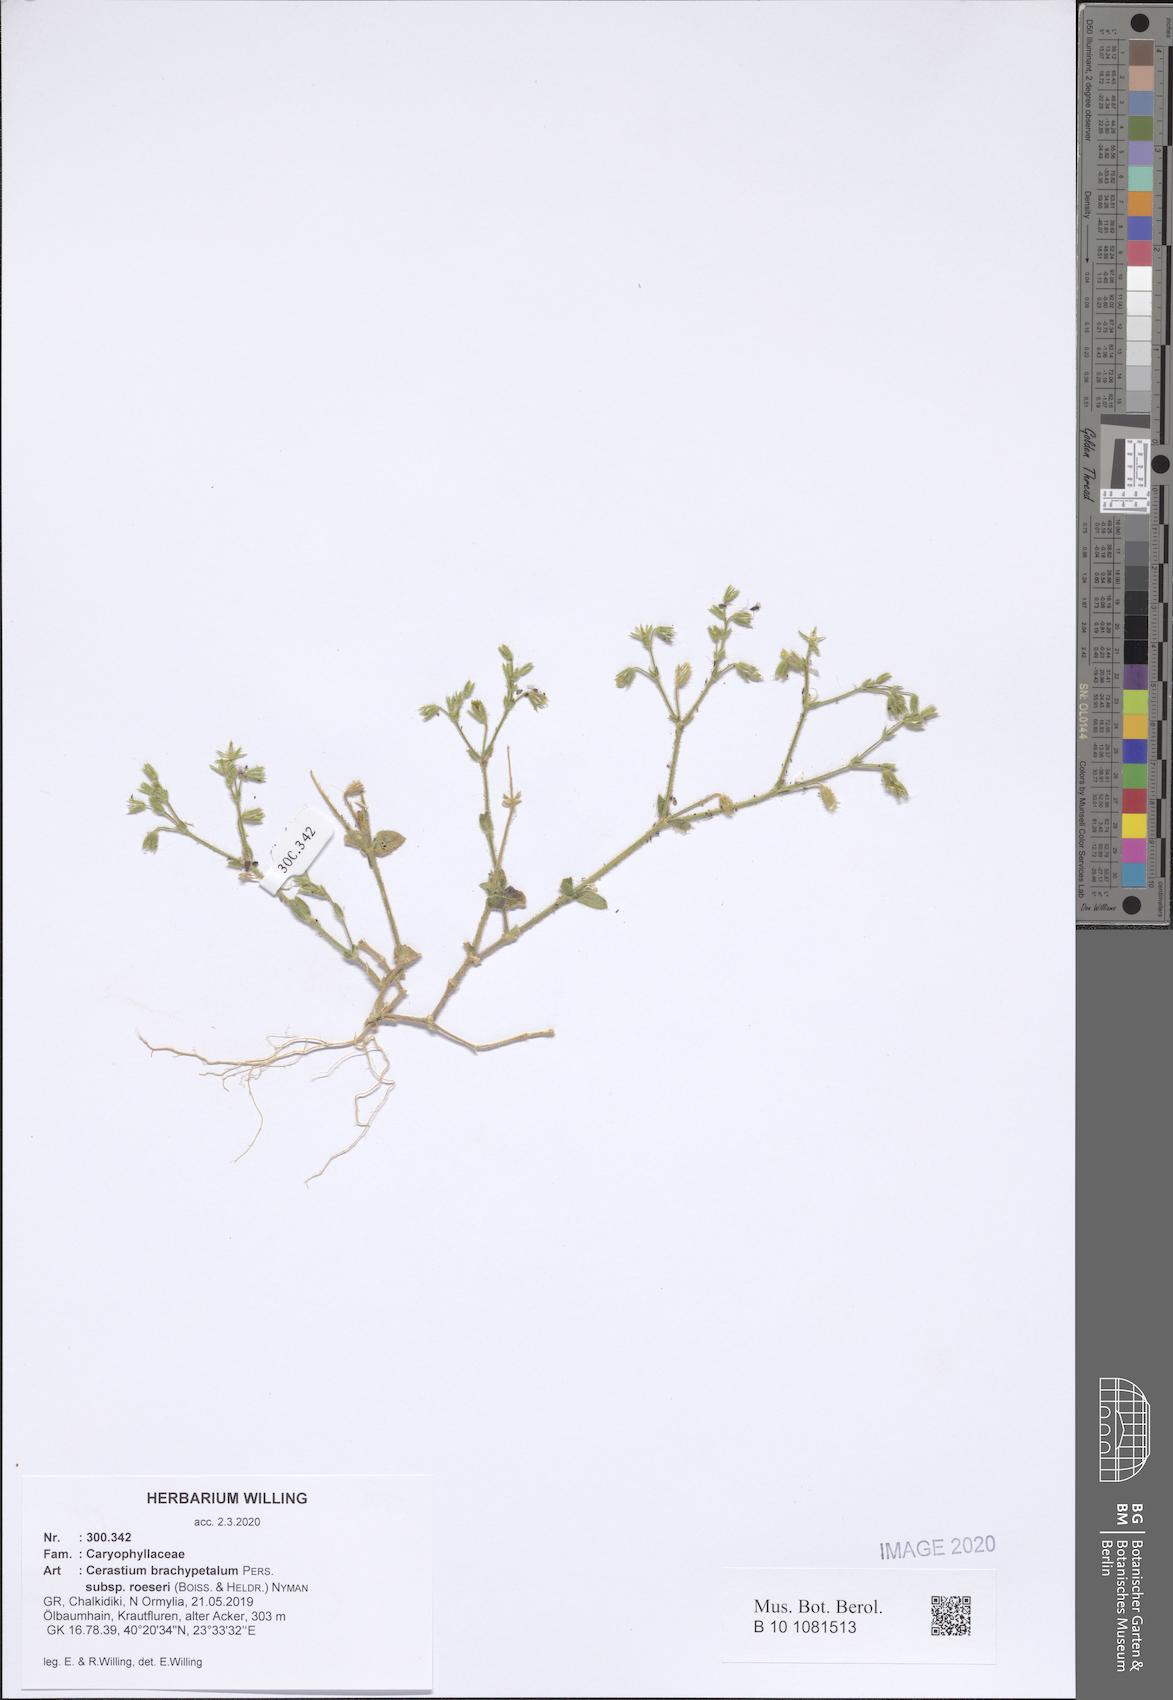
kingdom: Plantae
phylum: Tracheophyta
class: Magnoliopsida
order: Caryophyllales
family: Caryophyllaceae
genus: Cerastium
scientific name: Cerastium brachypetalum
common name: Grey mouse-ear
